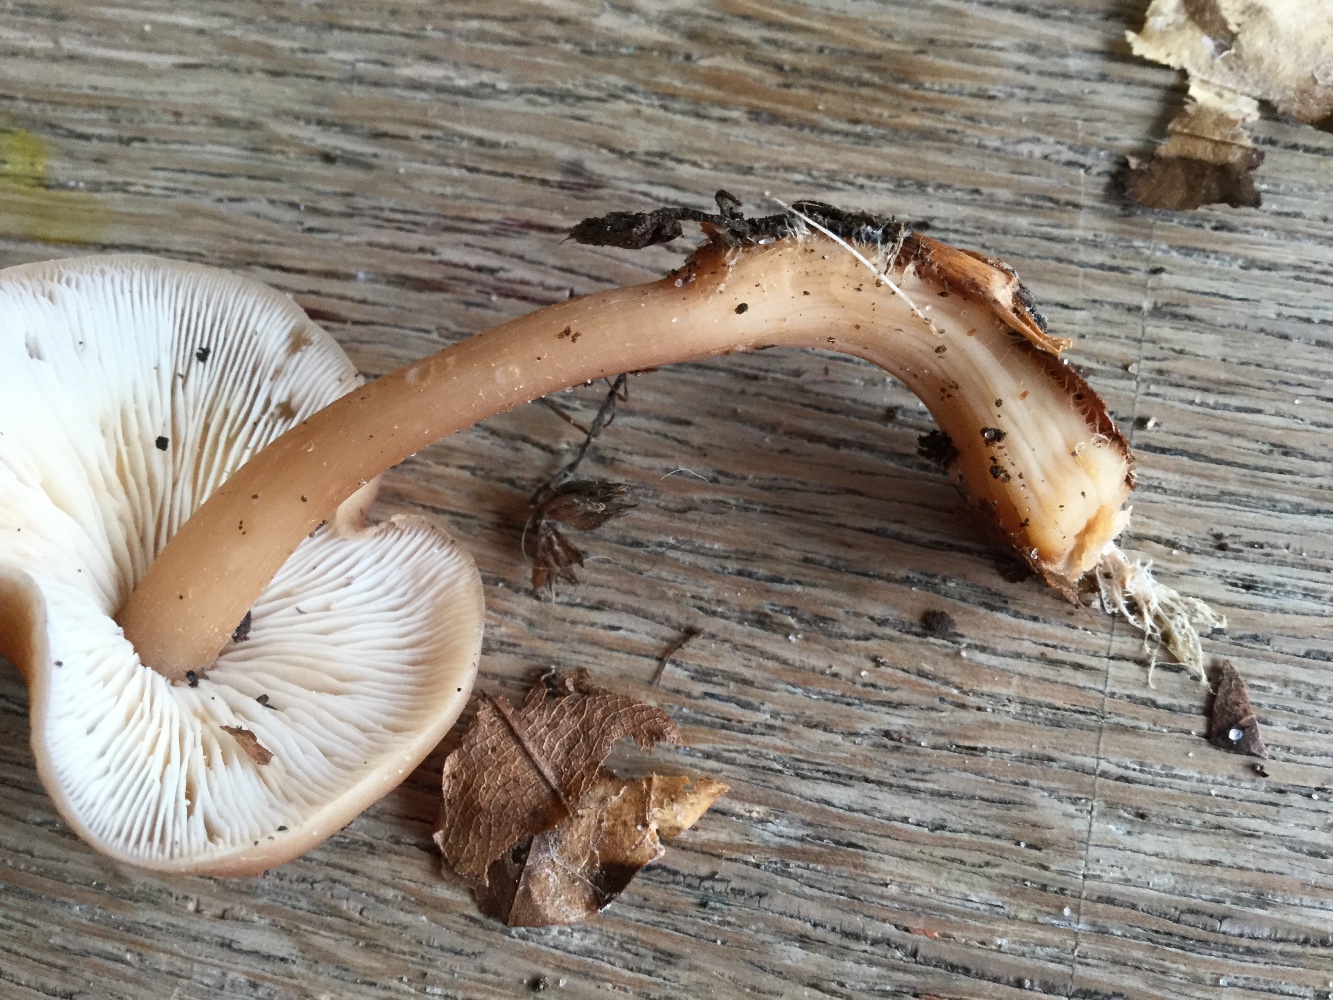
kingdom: Fungi
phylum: Basidiomycota
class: Agaricomycetes
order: Agaricales
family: Omphalotaceae
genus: Gymnopus
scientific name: Gymnopus
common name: fladhat
